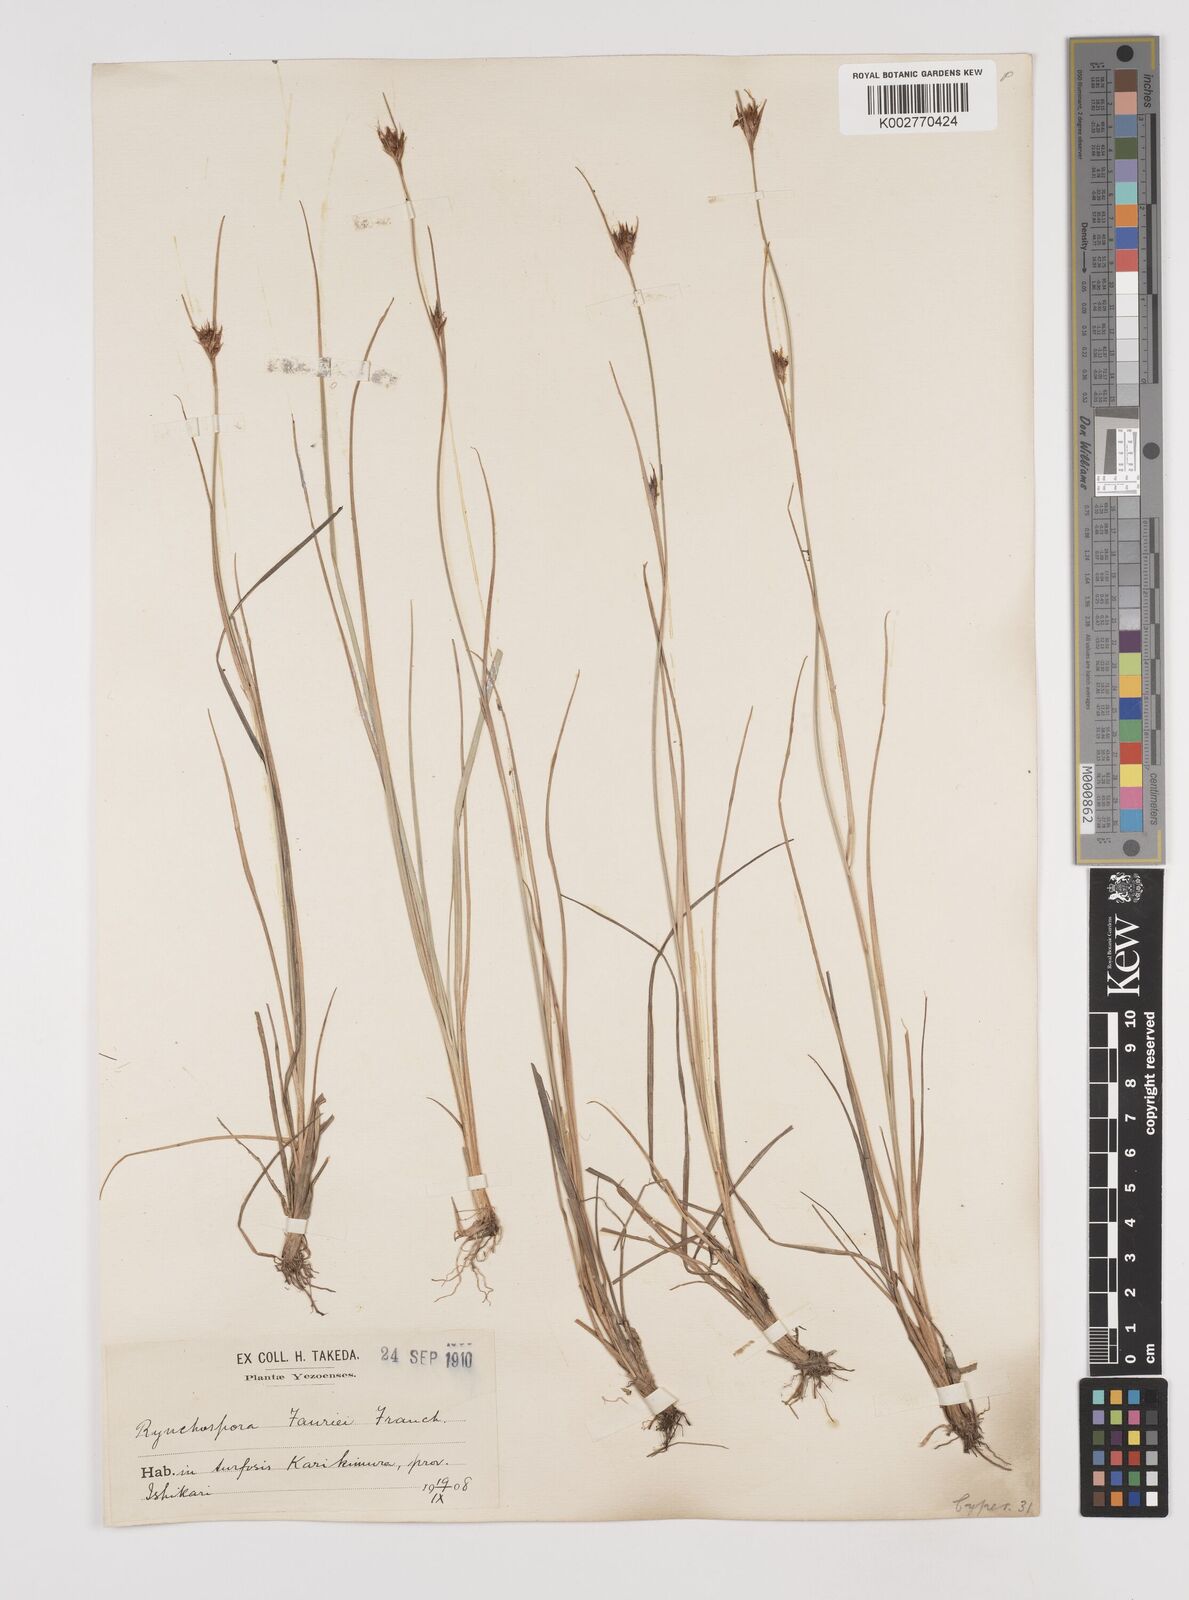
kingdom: Plantae
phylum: Tracheophyta
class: Liliopsida
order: Poales
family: Cyperaceae
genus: Rhynchospora
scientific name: Rhynchospora fauriei
